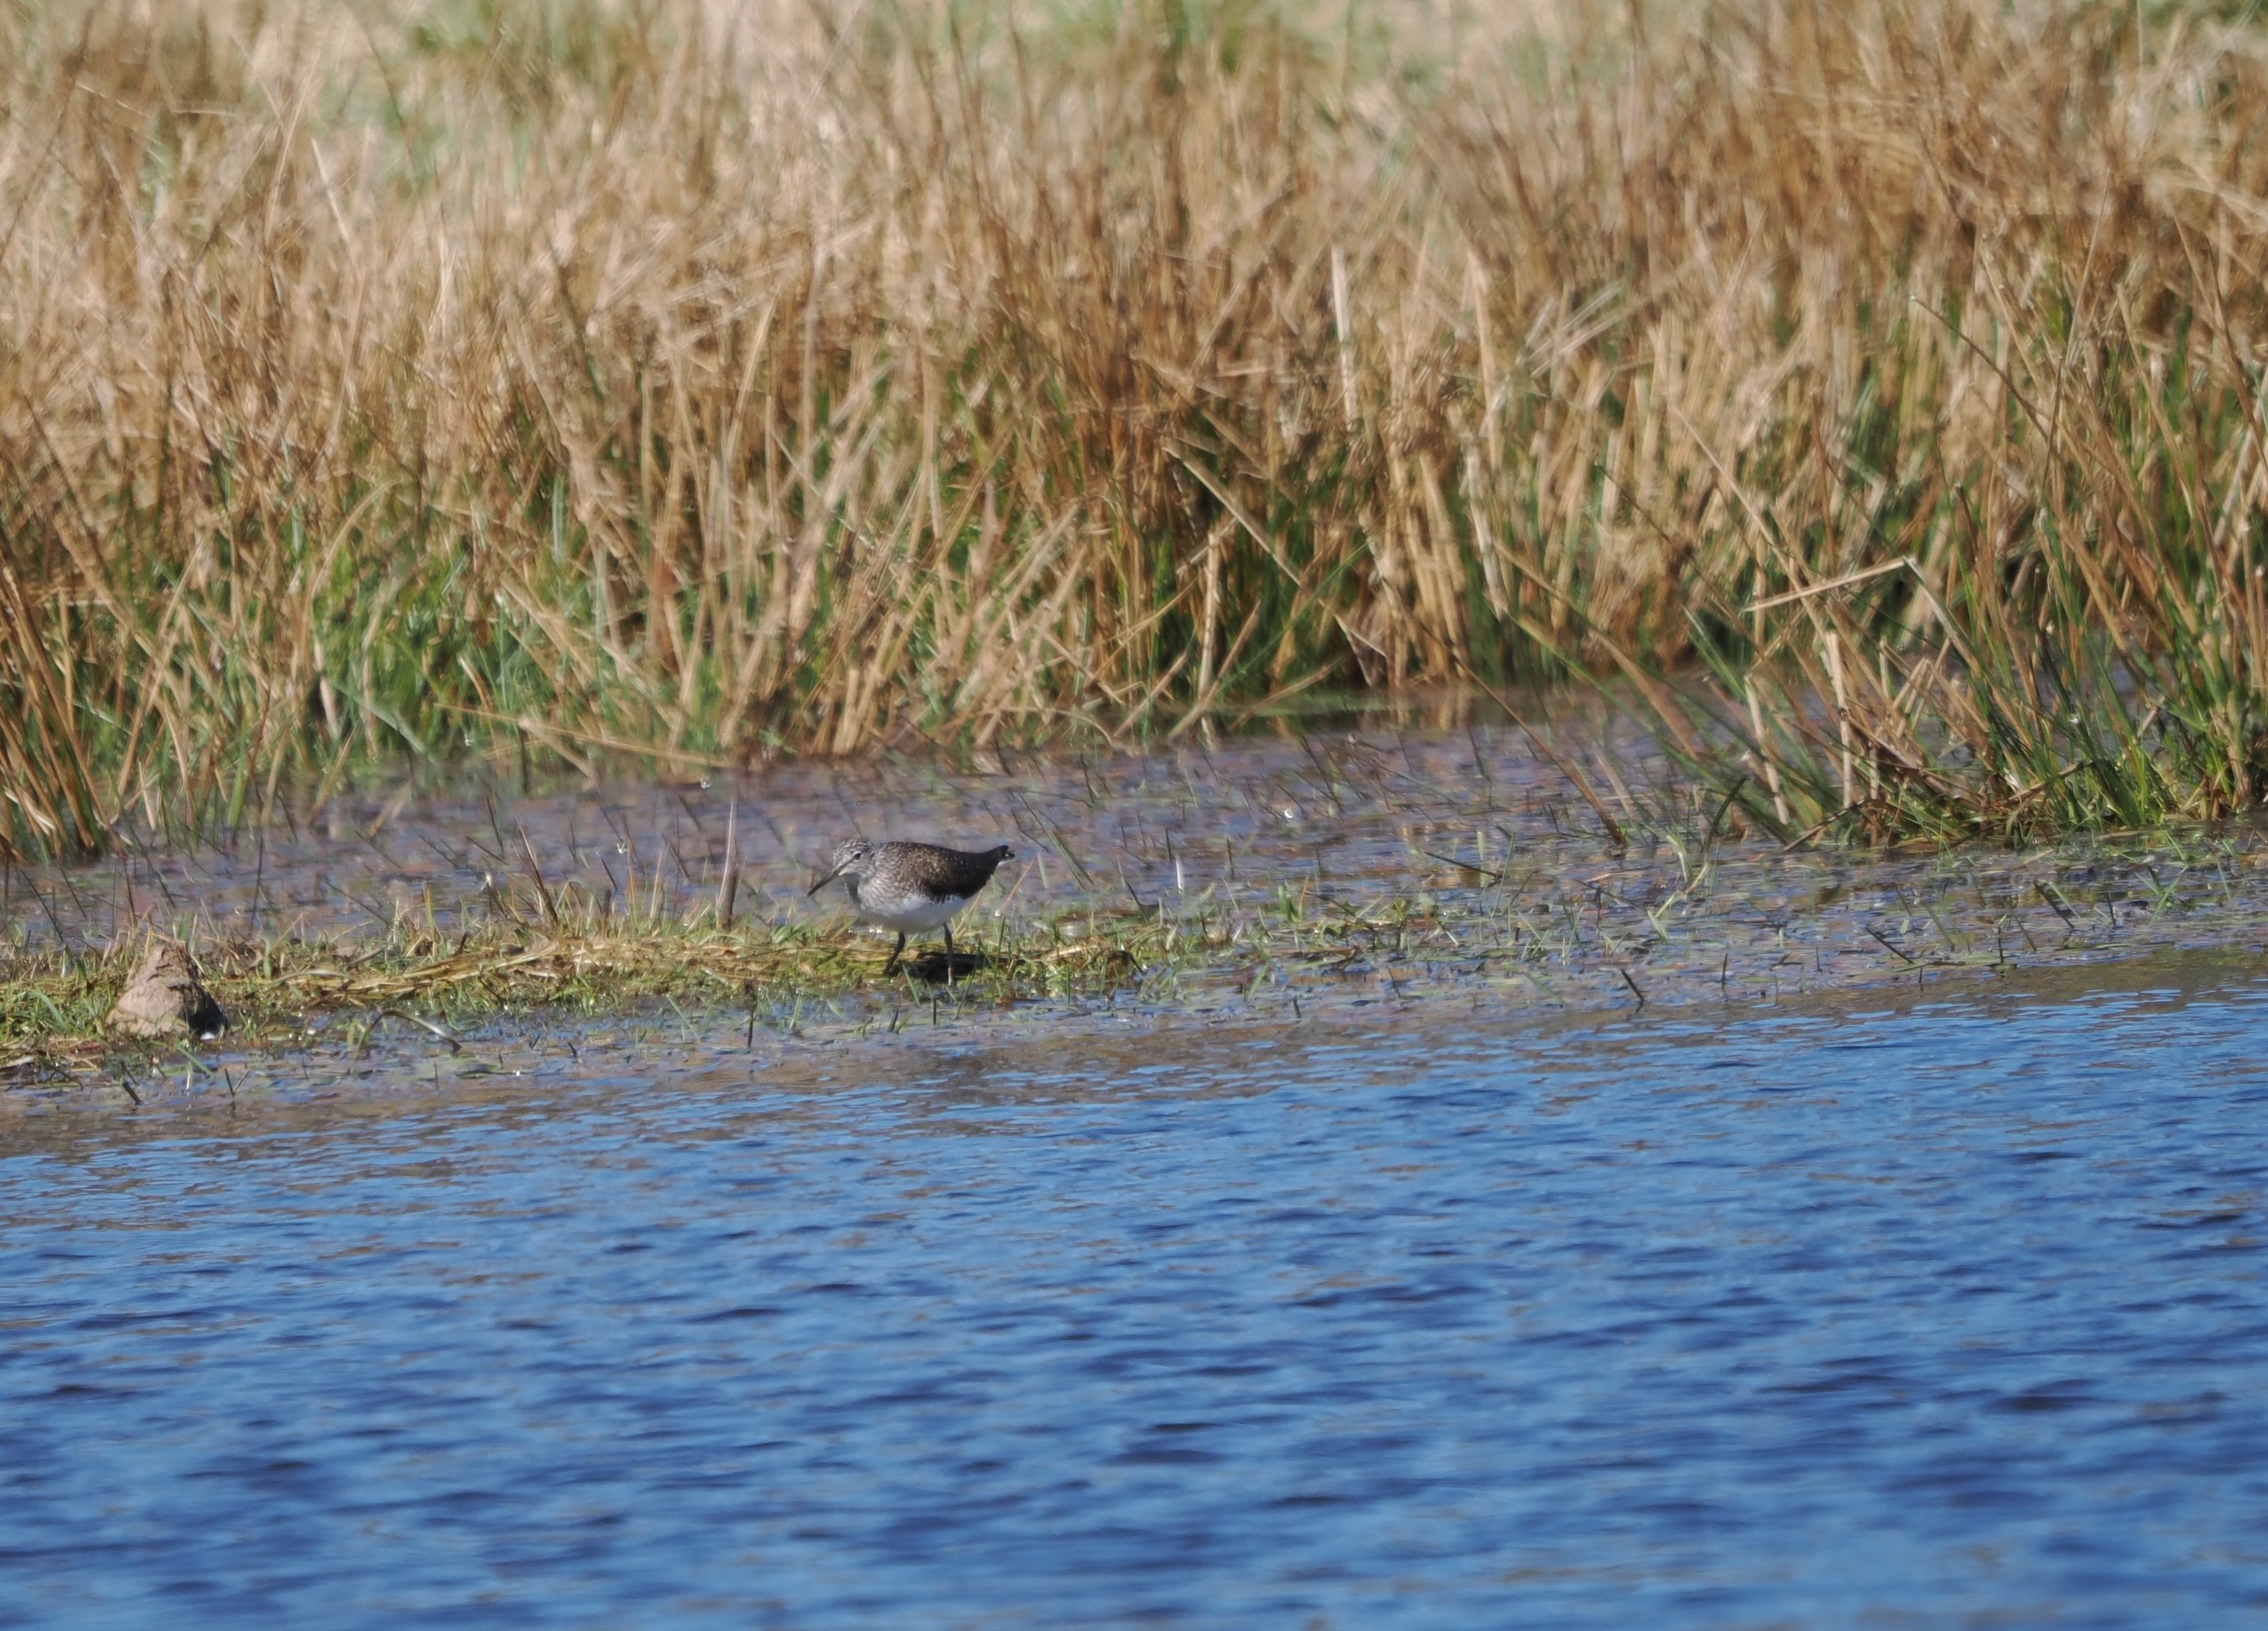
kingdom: Animalia
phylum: Chordata
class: Aves
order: Charadriiformes
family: Scolopacidae
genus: Tringa
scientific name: Tringa ochropus
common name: Svaleklire
